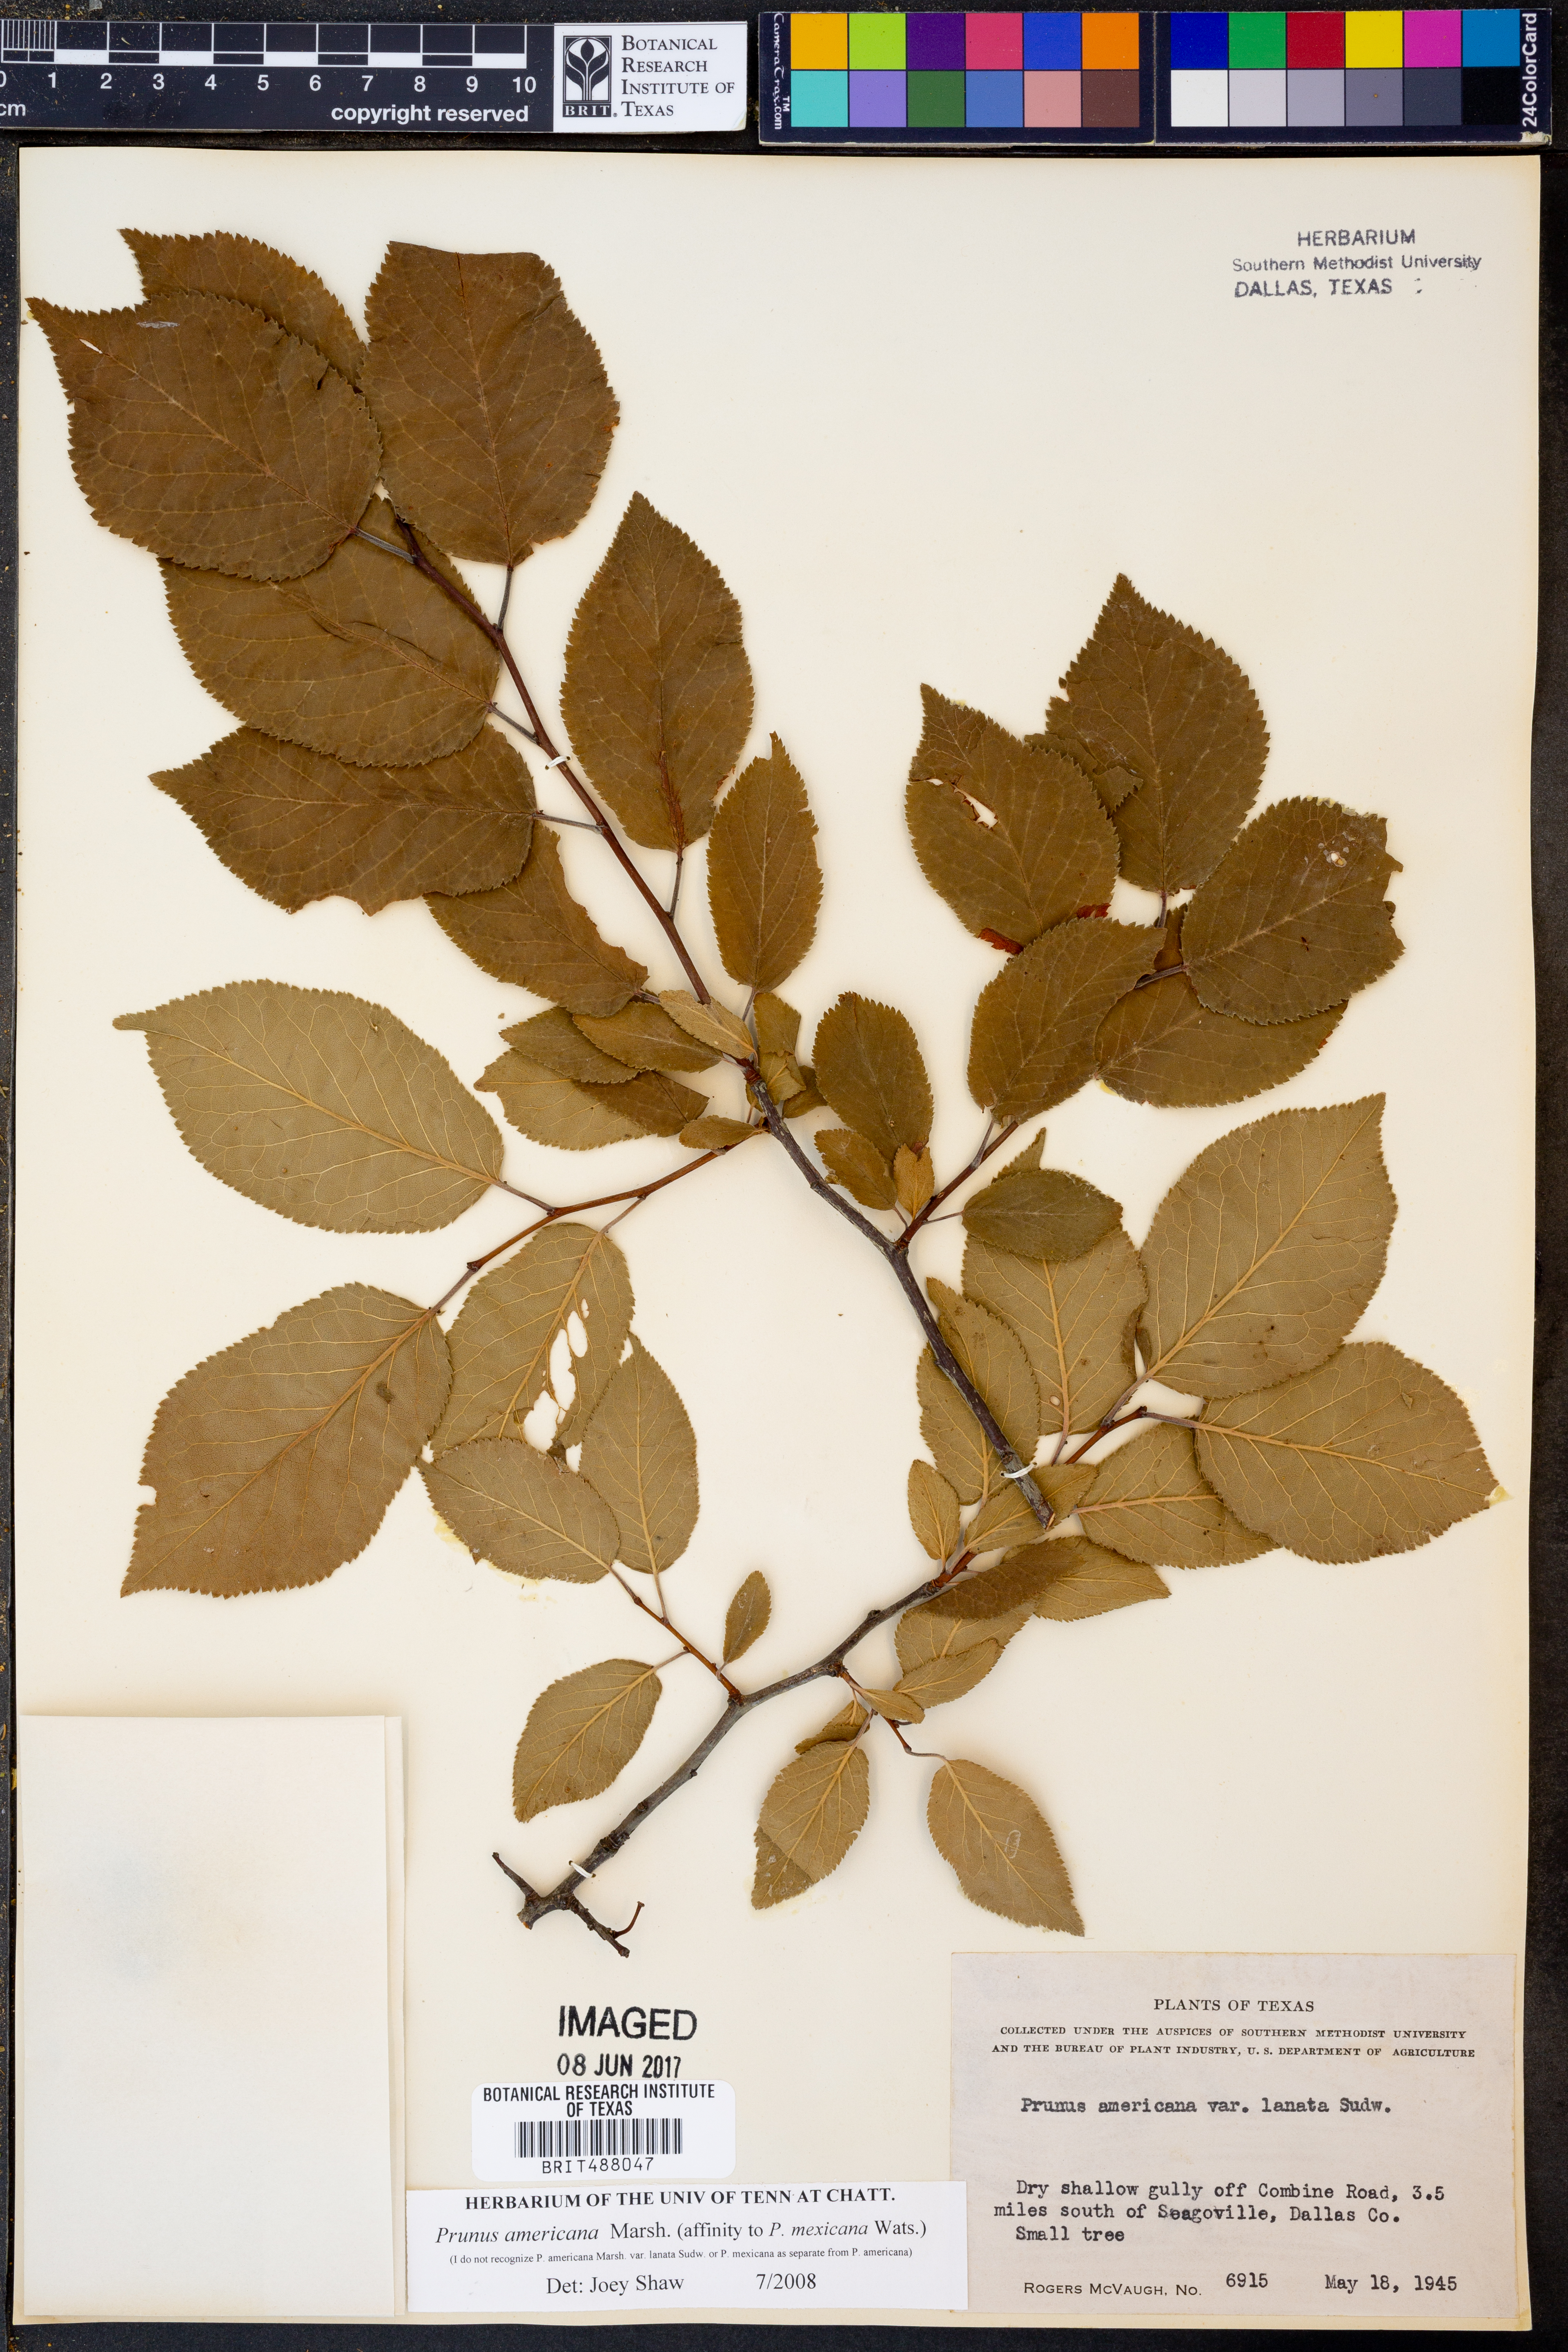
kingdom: Plantae
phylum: Tracheophyta
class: Magnoliopsida
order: Rosales
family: Rosaceae
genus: Prunus
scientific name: Prunus americana
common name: American plum
